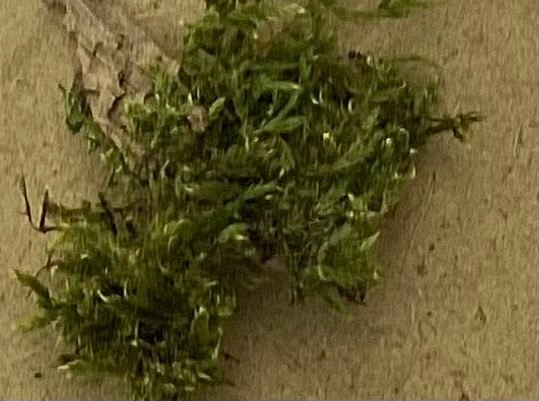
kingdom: Plantae
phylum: Bryophyta
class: Bryopsida
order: Hypnales
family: Brachytheciaceae
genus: Brachythecium
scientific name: Brachythecium rutabulum
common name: Almindelig kortkapsel
